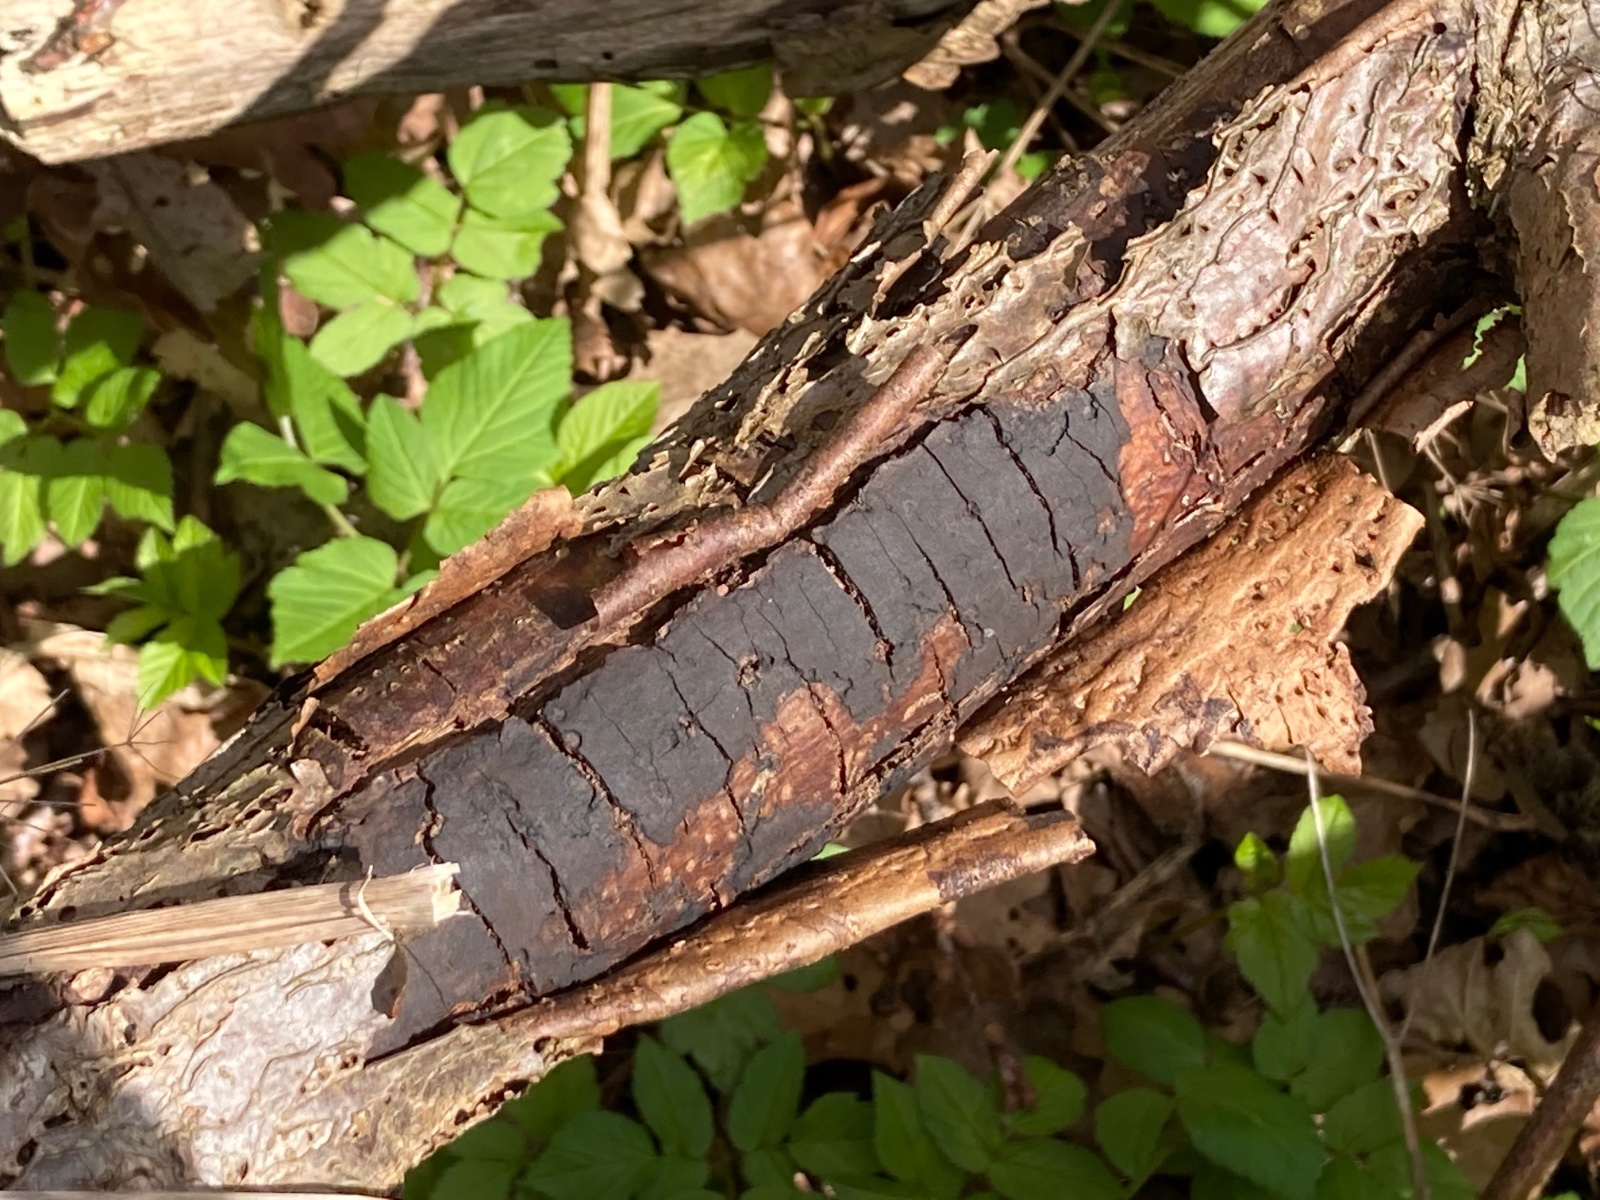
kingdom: Fungi
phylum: Ascomycota
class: Sordariomycetes
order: Xylariales
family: Diatrypaceae
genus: Diatrype
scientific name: Diatrype stigma
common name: udbredt kulskorpe
